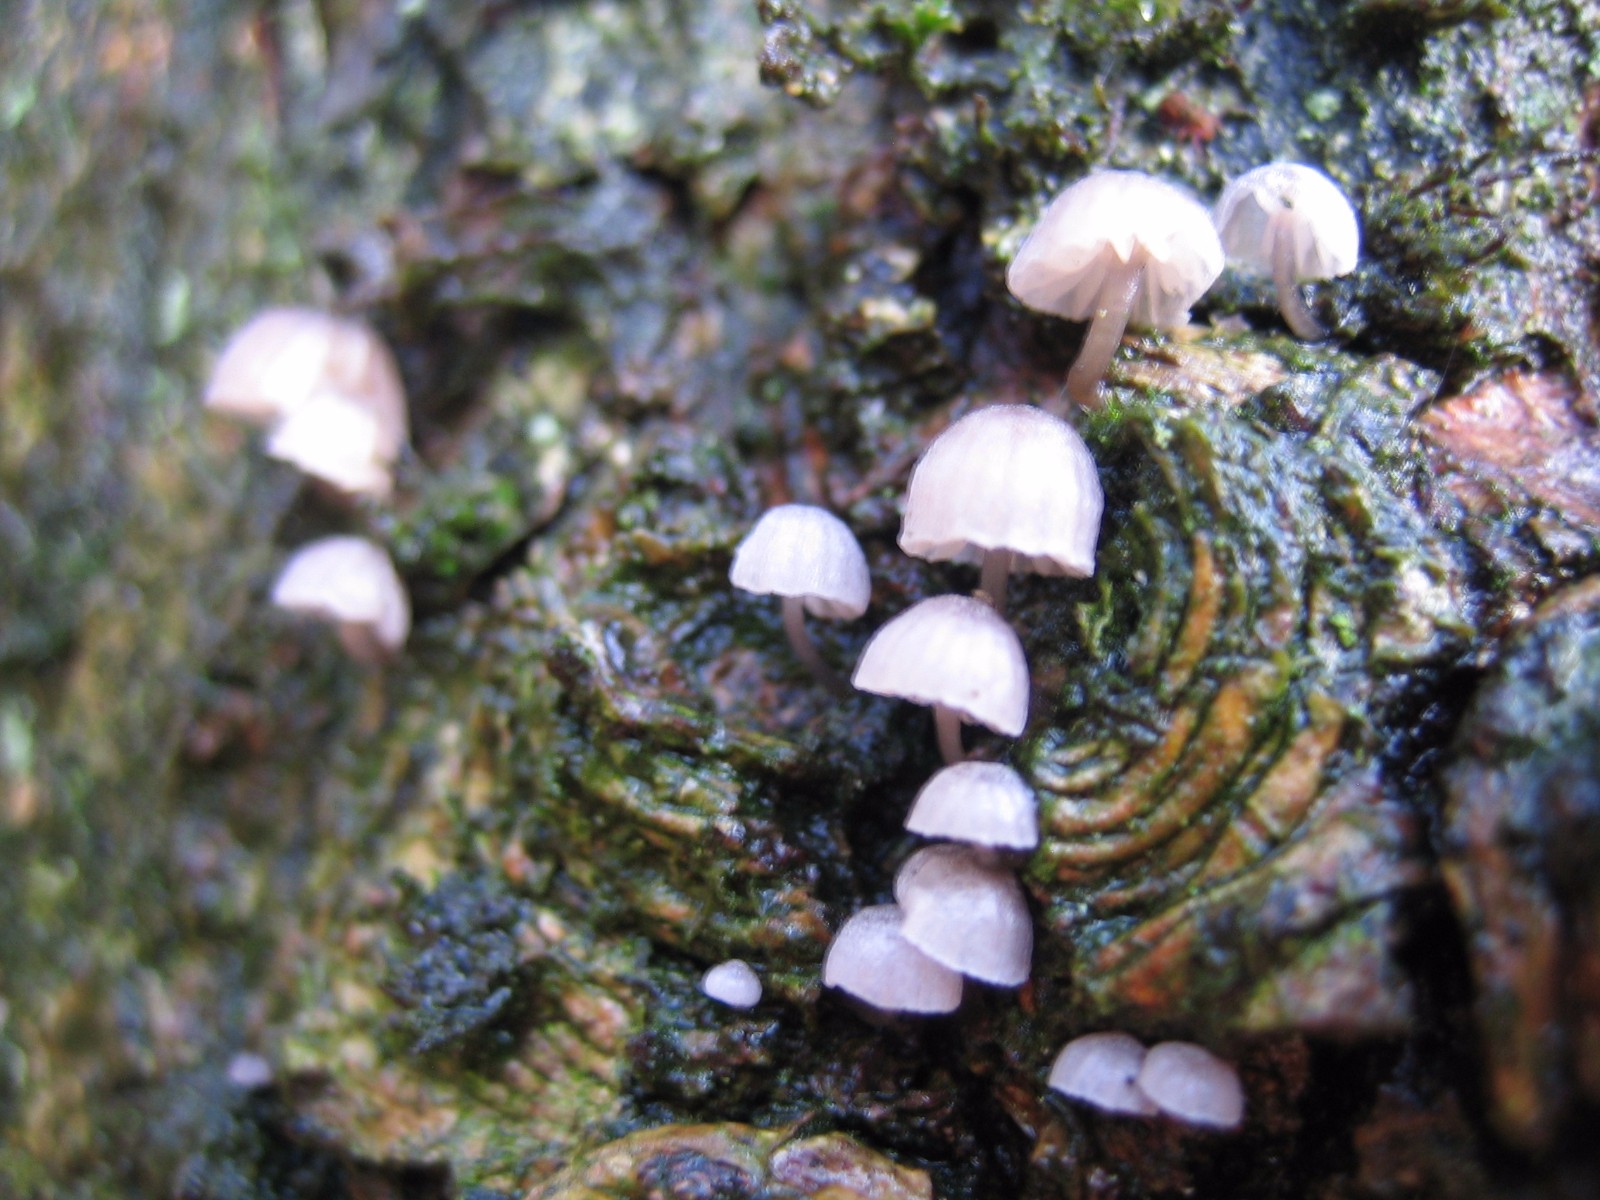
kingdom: Fungi
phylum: Basidiomycota
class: Agaricomycetes
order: Agaricales
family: Mycenaceae
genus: Mycena
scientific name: Mycena
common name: huesvamp
